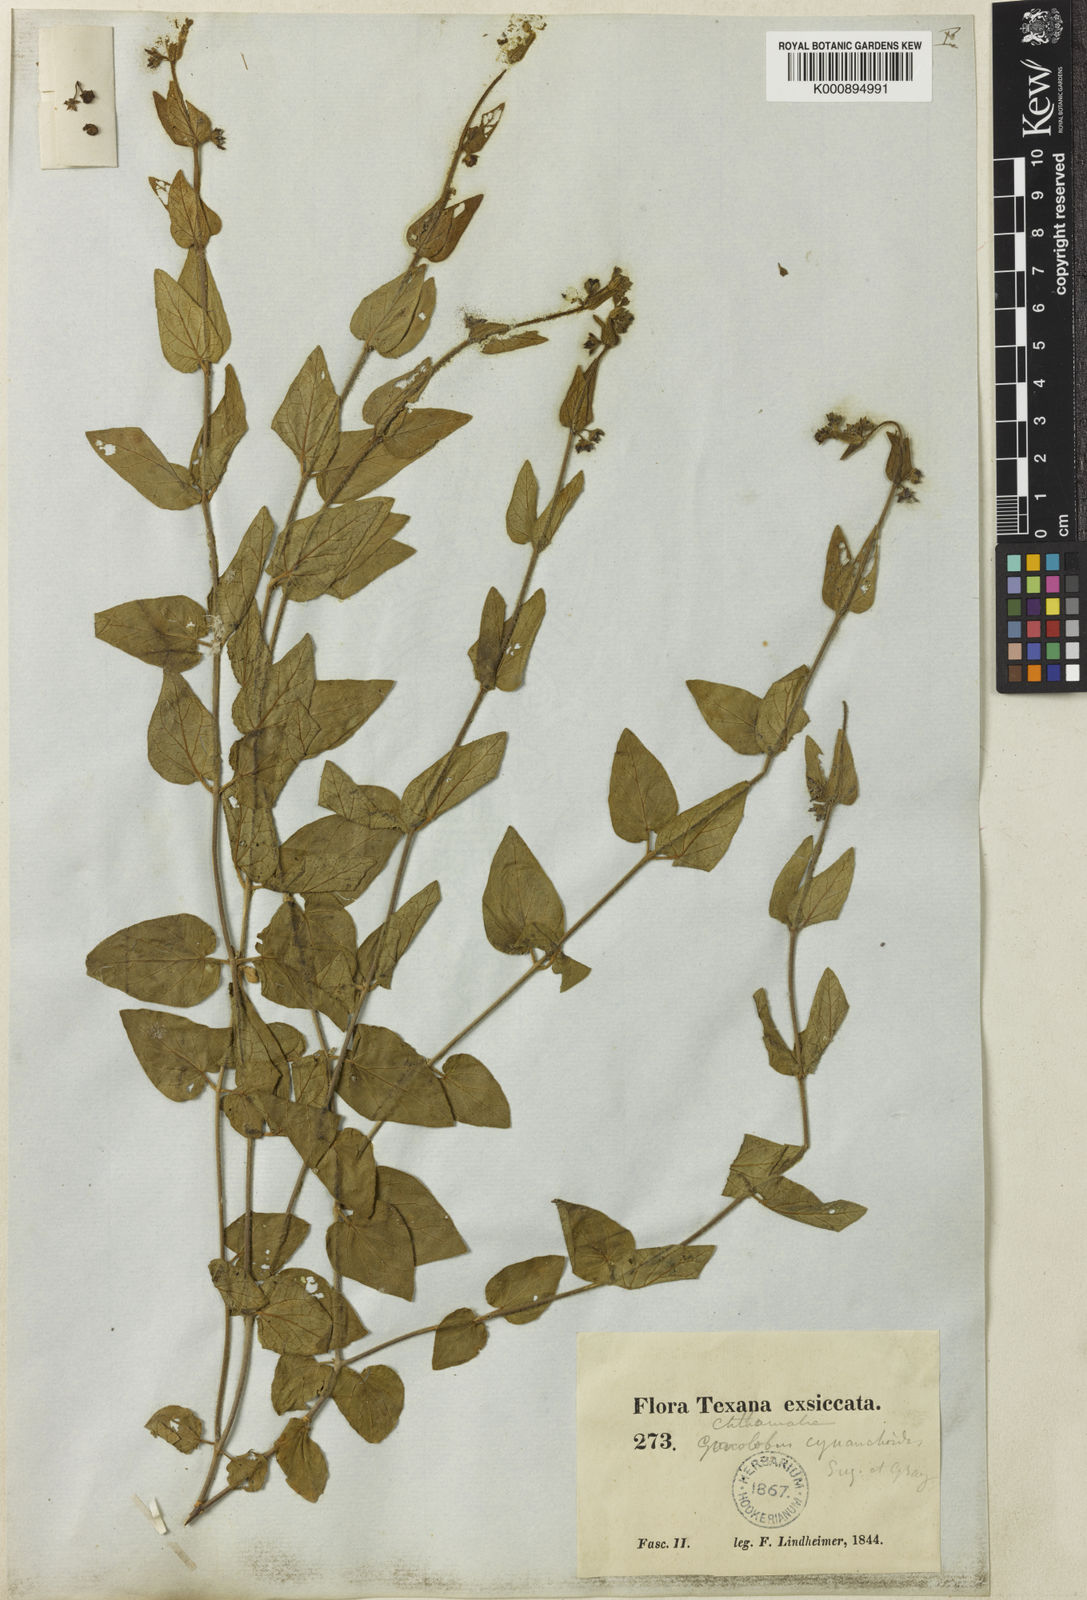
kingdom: Plantae
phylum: Tracheophyta
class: Magnoliopsida
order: Gentianales
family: Apocynaceae
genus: Matelea
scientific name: Matelea cynanchoides
